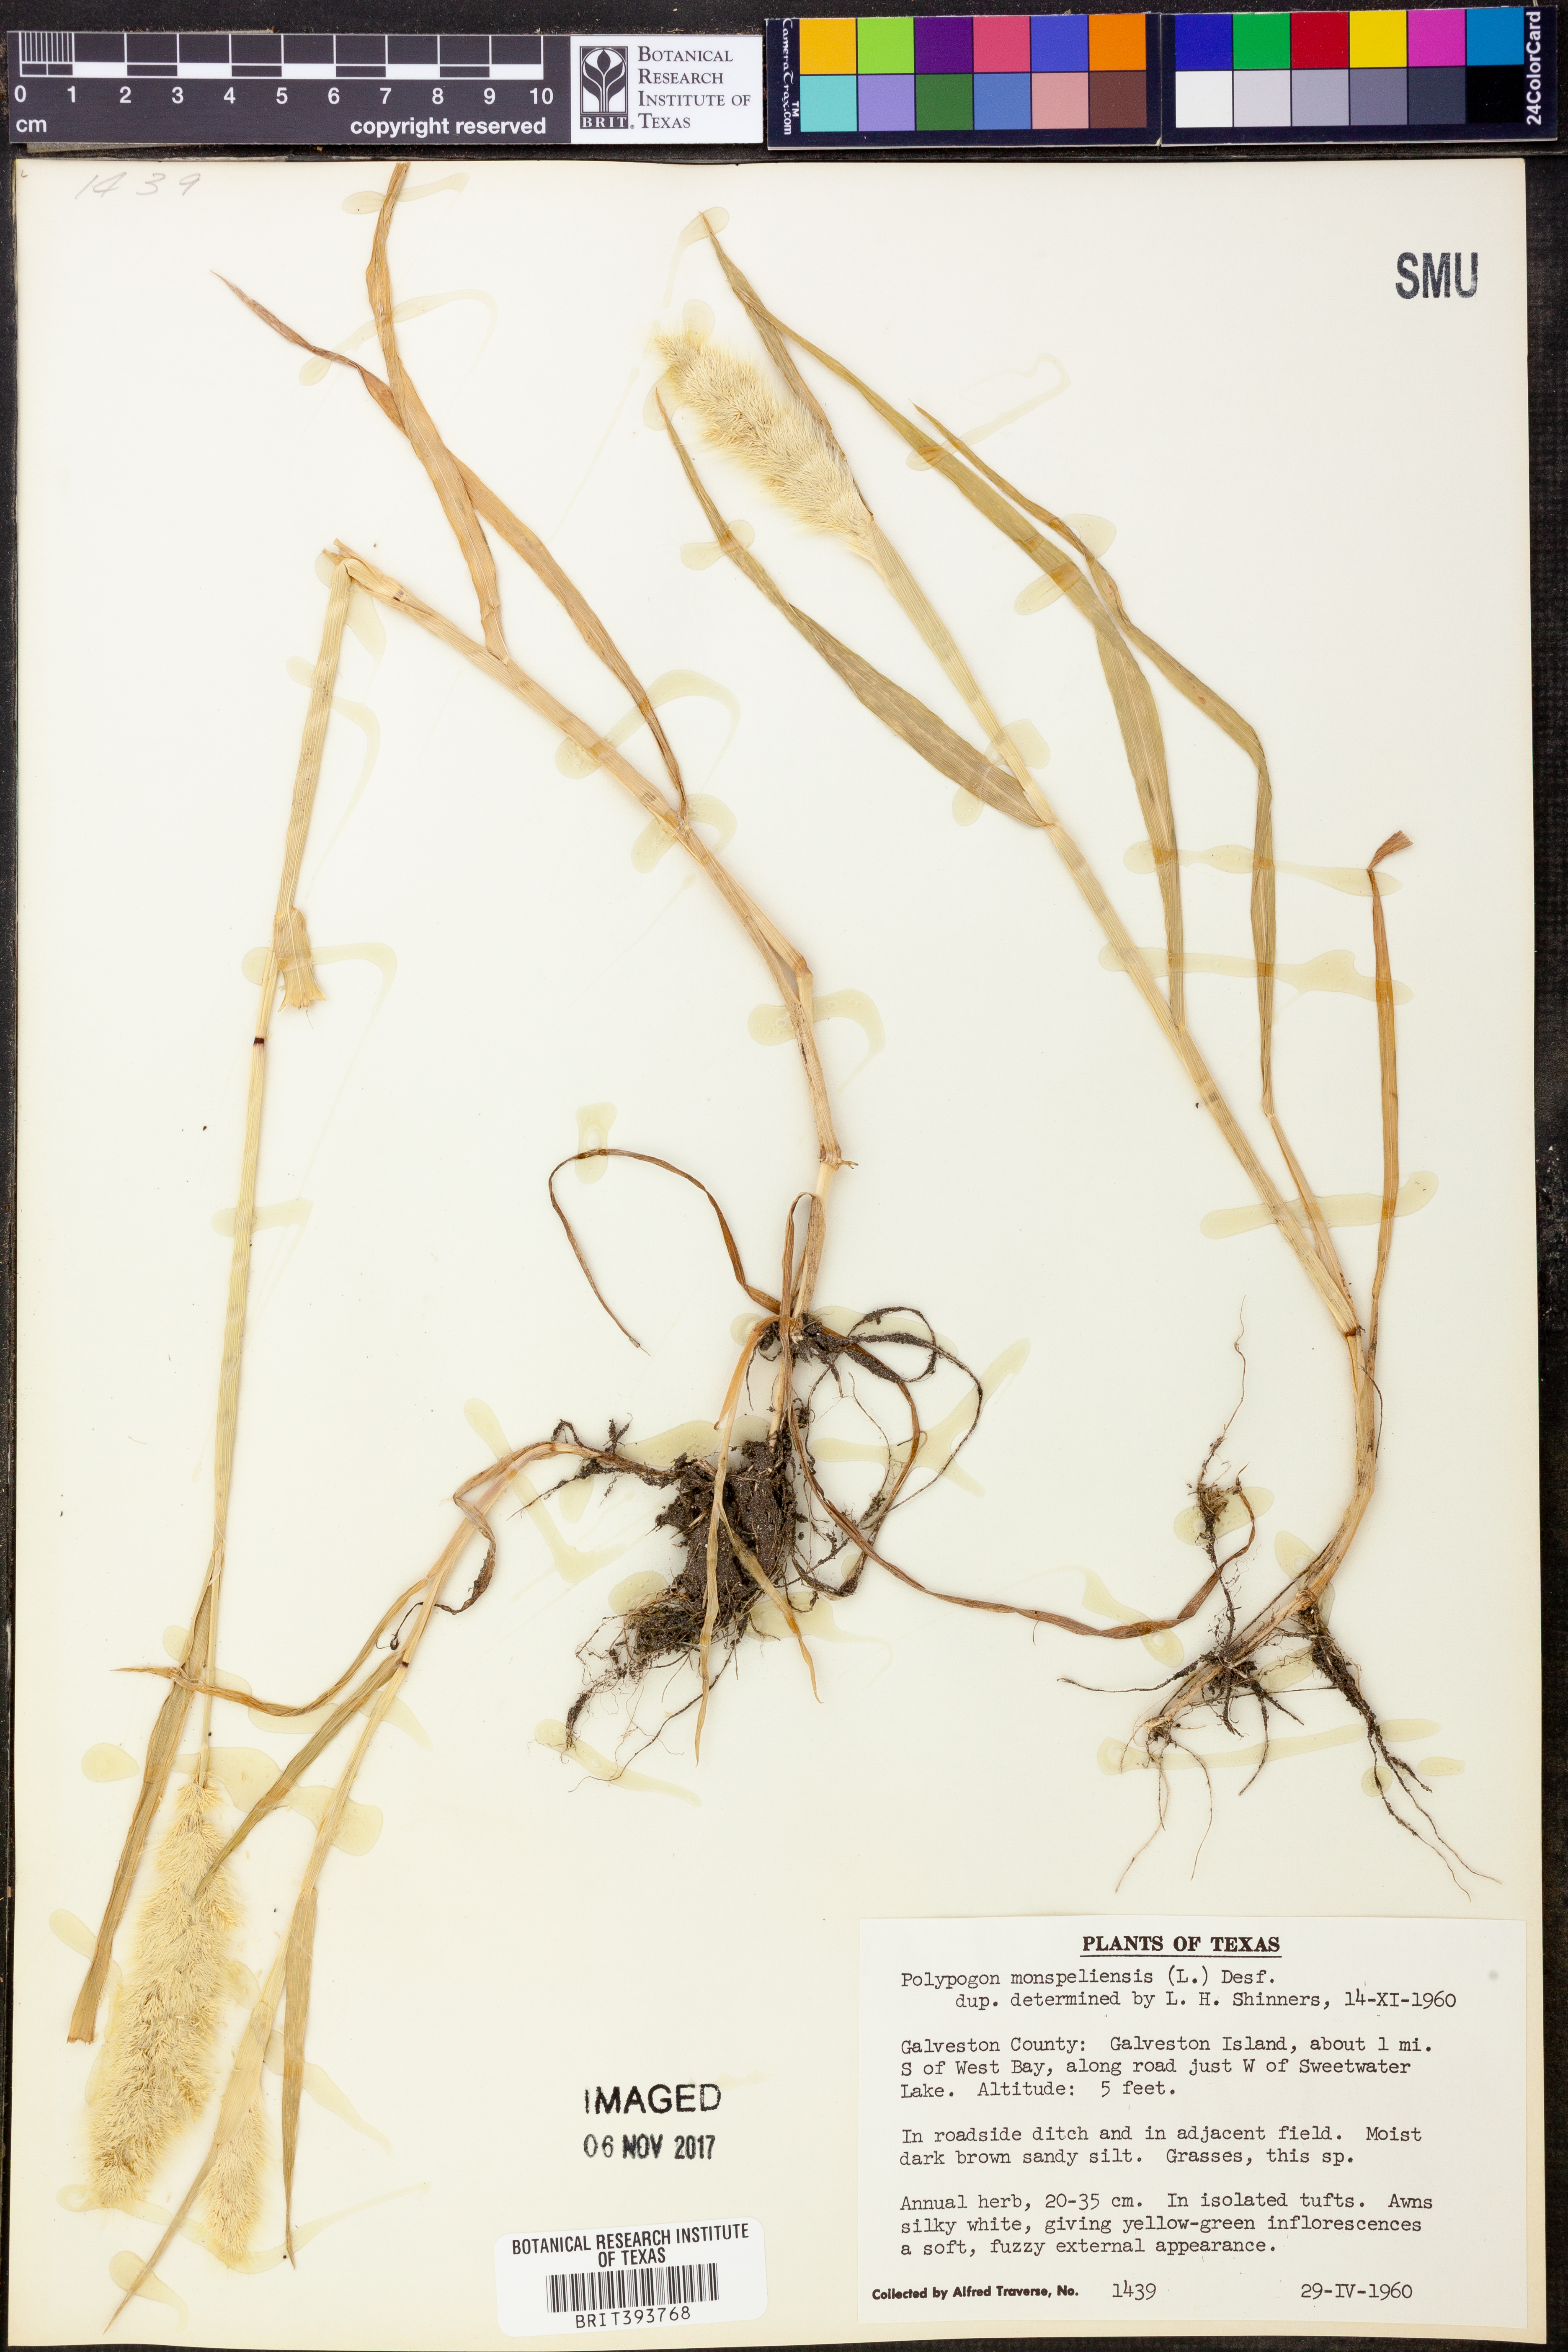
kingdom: Plantae
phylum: Tracheophyta
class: Liliopsida
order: Poales
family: Poaceae
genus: Polypogon
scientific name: Polypogon monspeliensis
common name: Annual rabbitsfoot grass
